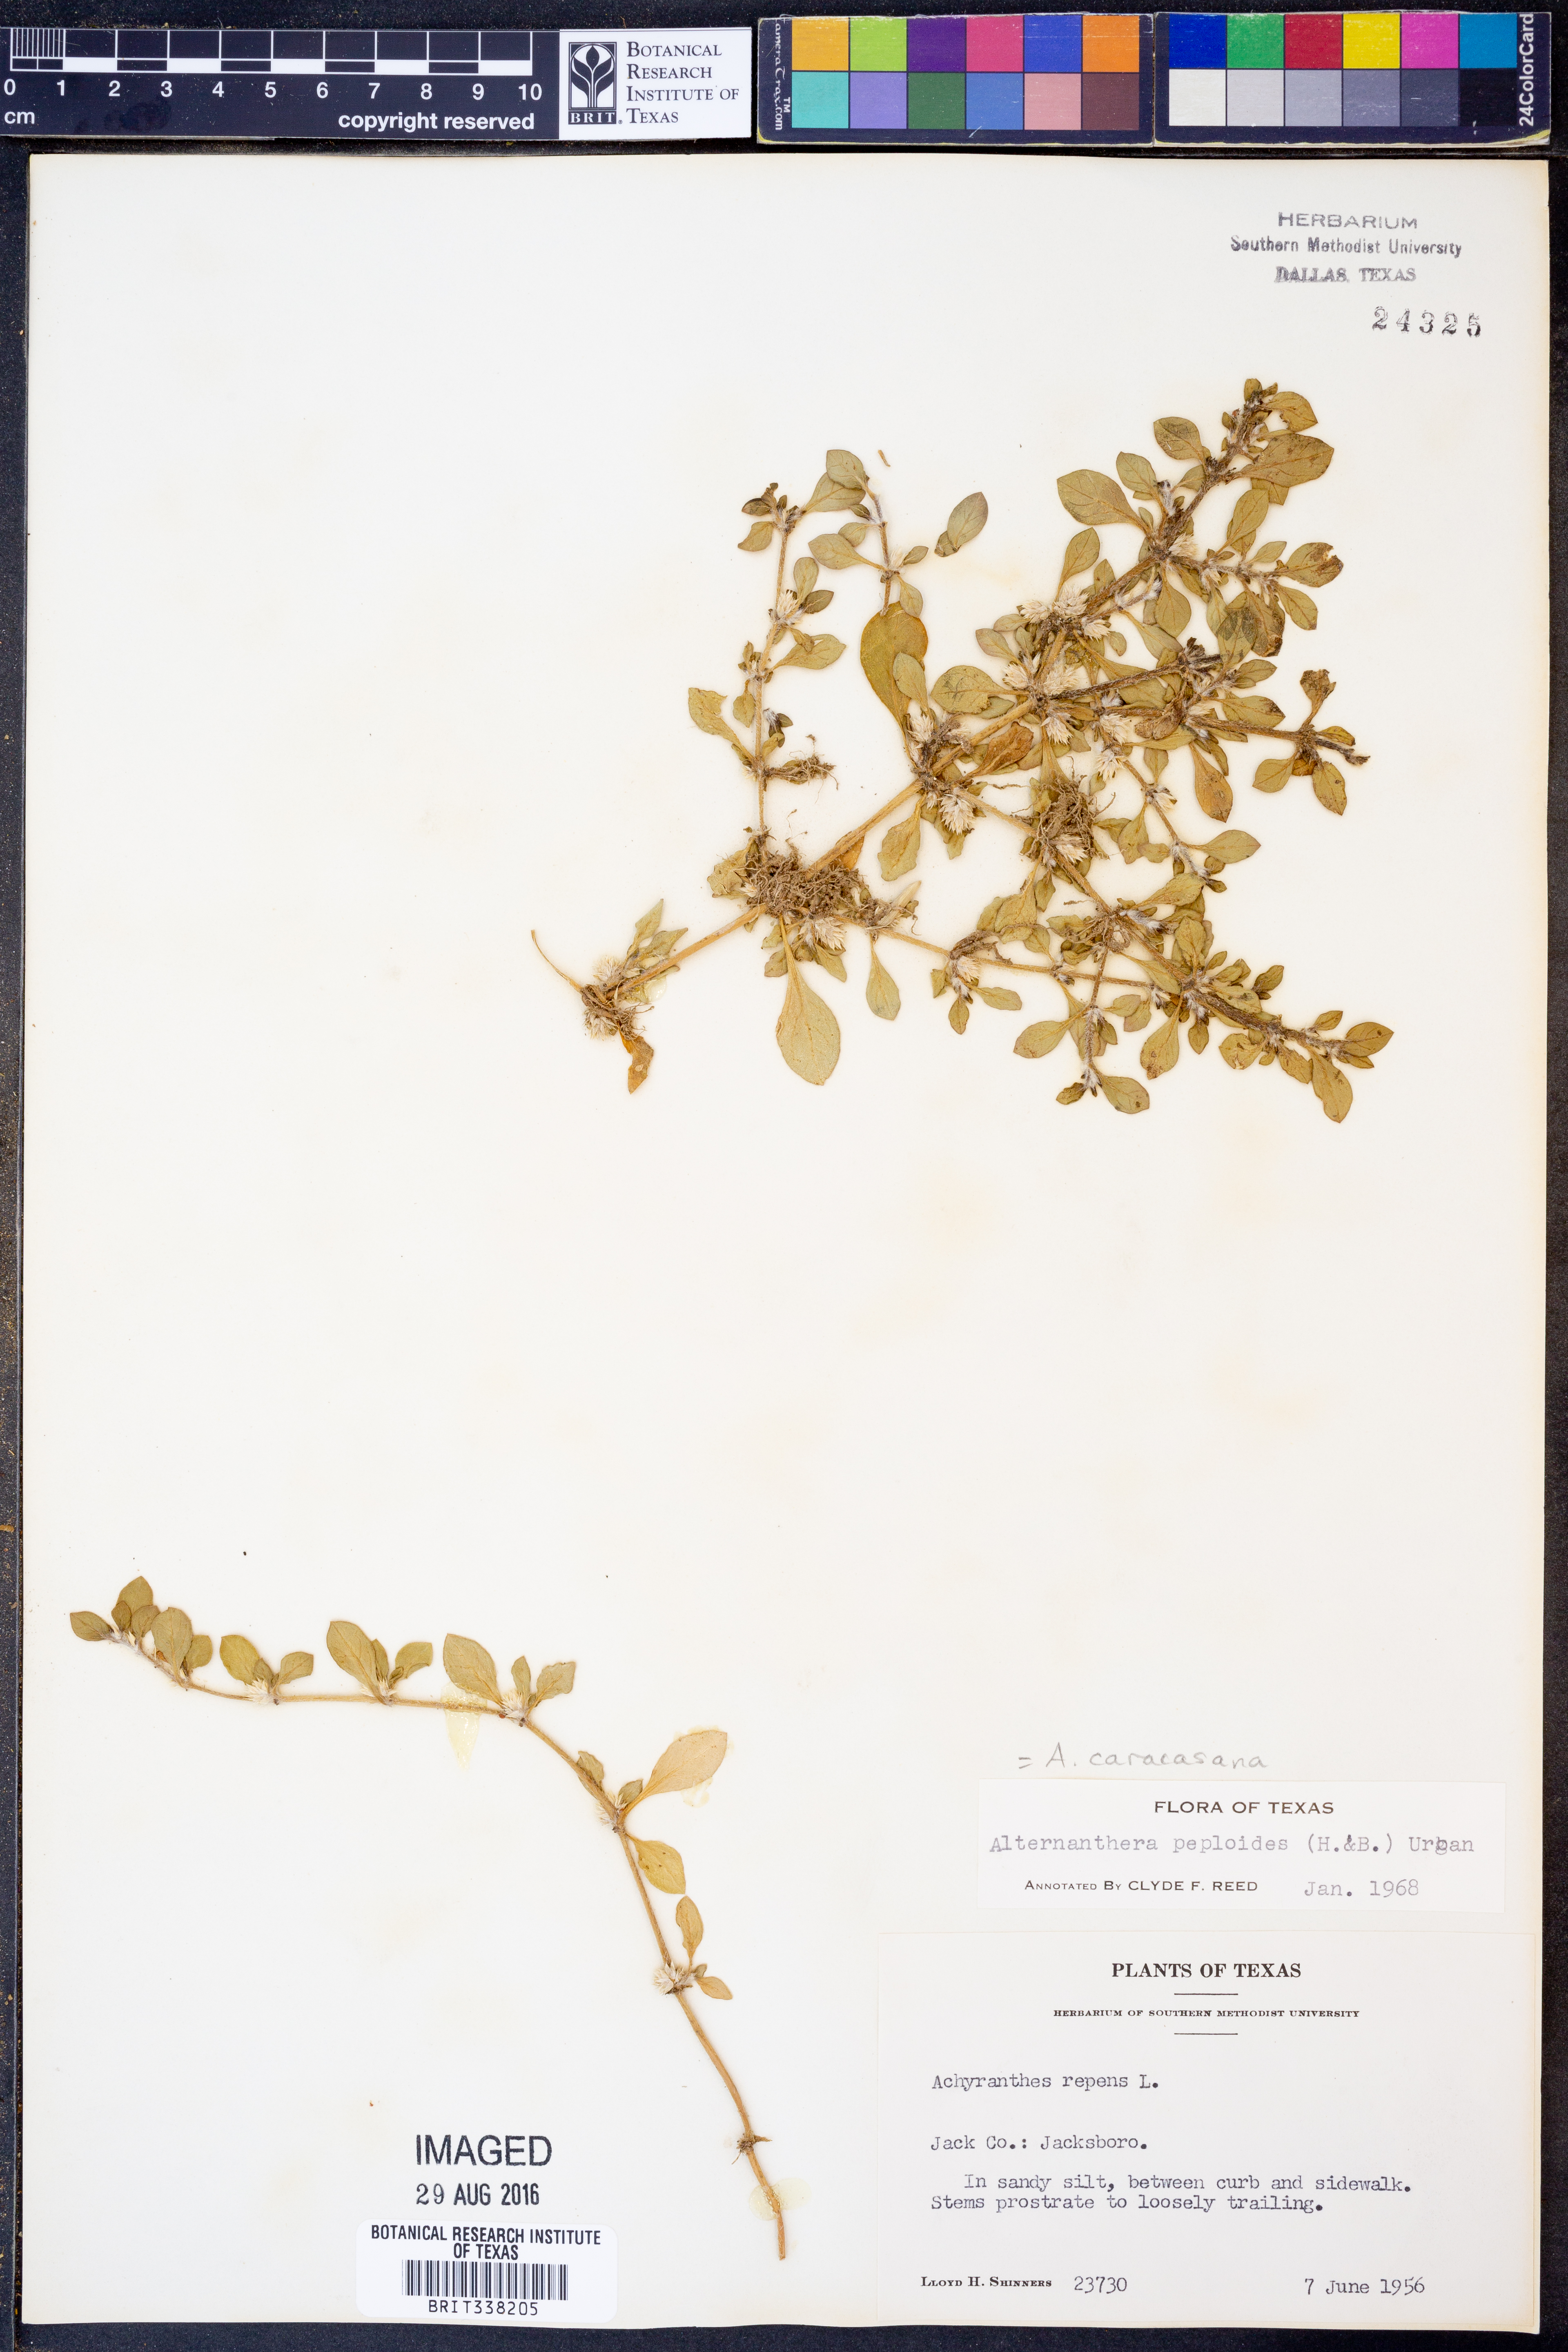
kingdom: Plantae
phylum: Tracheophyta
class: Magnoliopsida
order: Caryophyllales
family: Amaranthaceae
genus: Alternanthera
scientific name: Alternanthera caracasana
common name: Washerwoman
